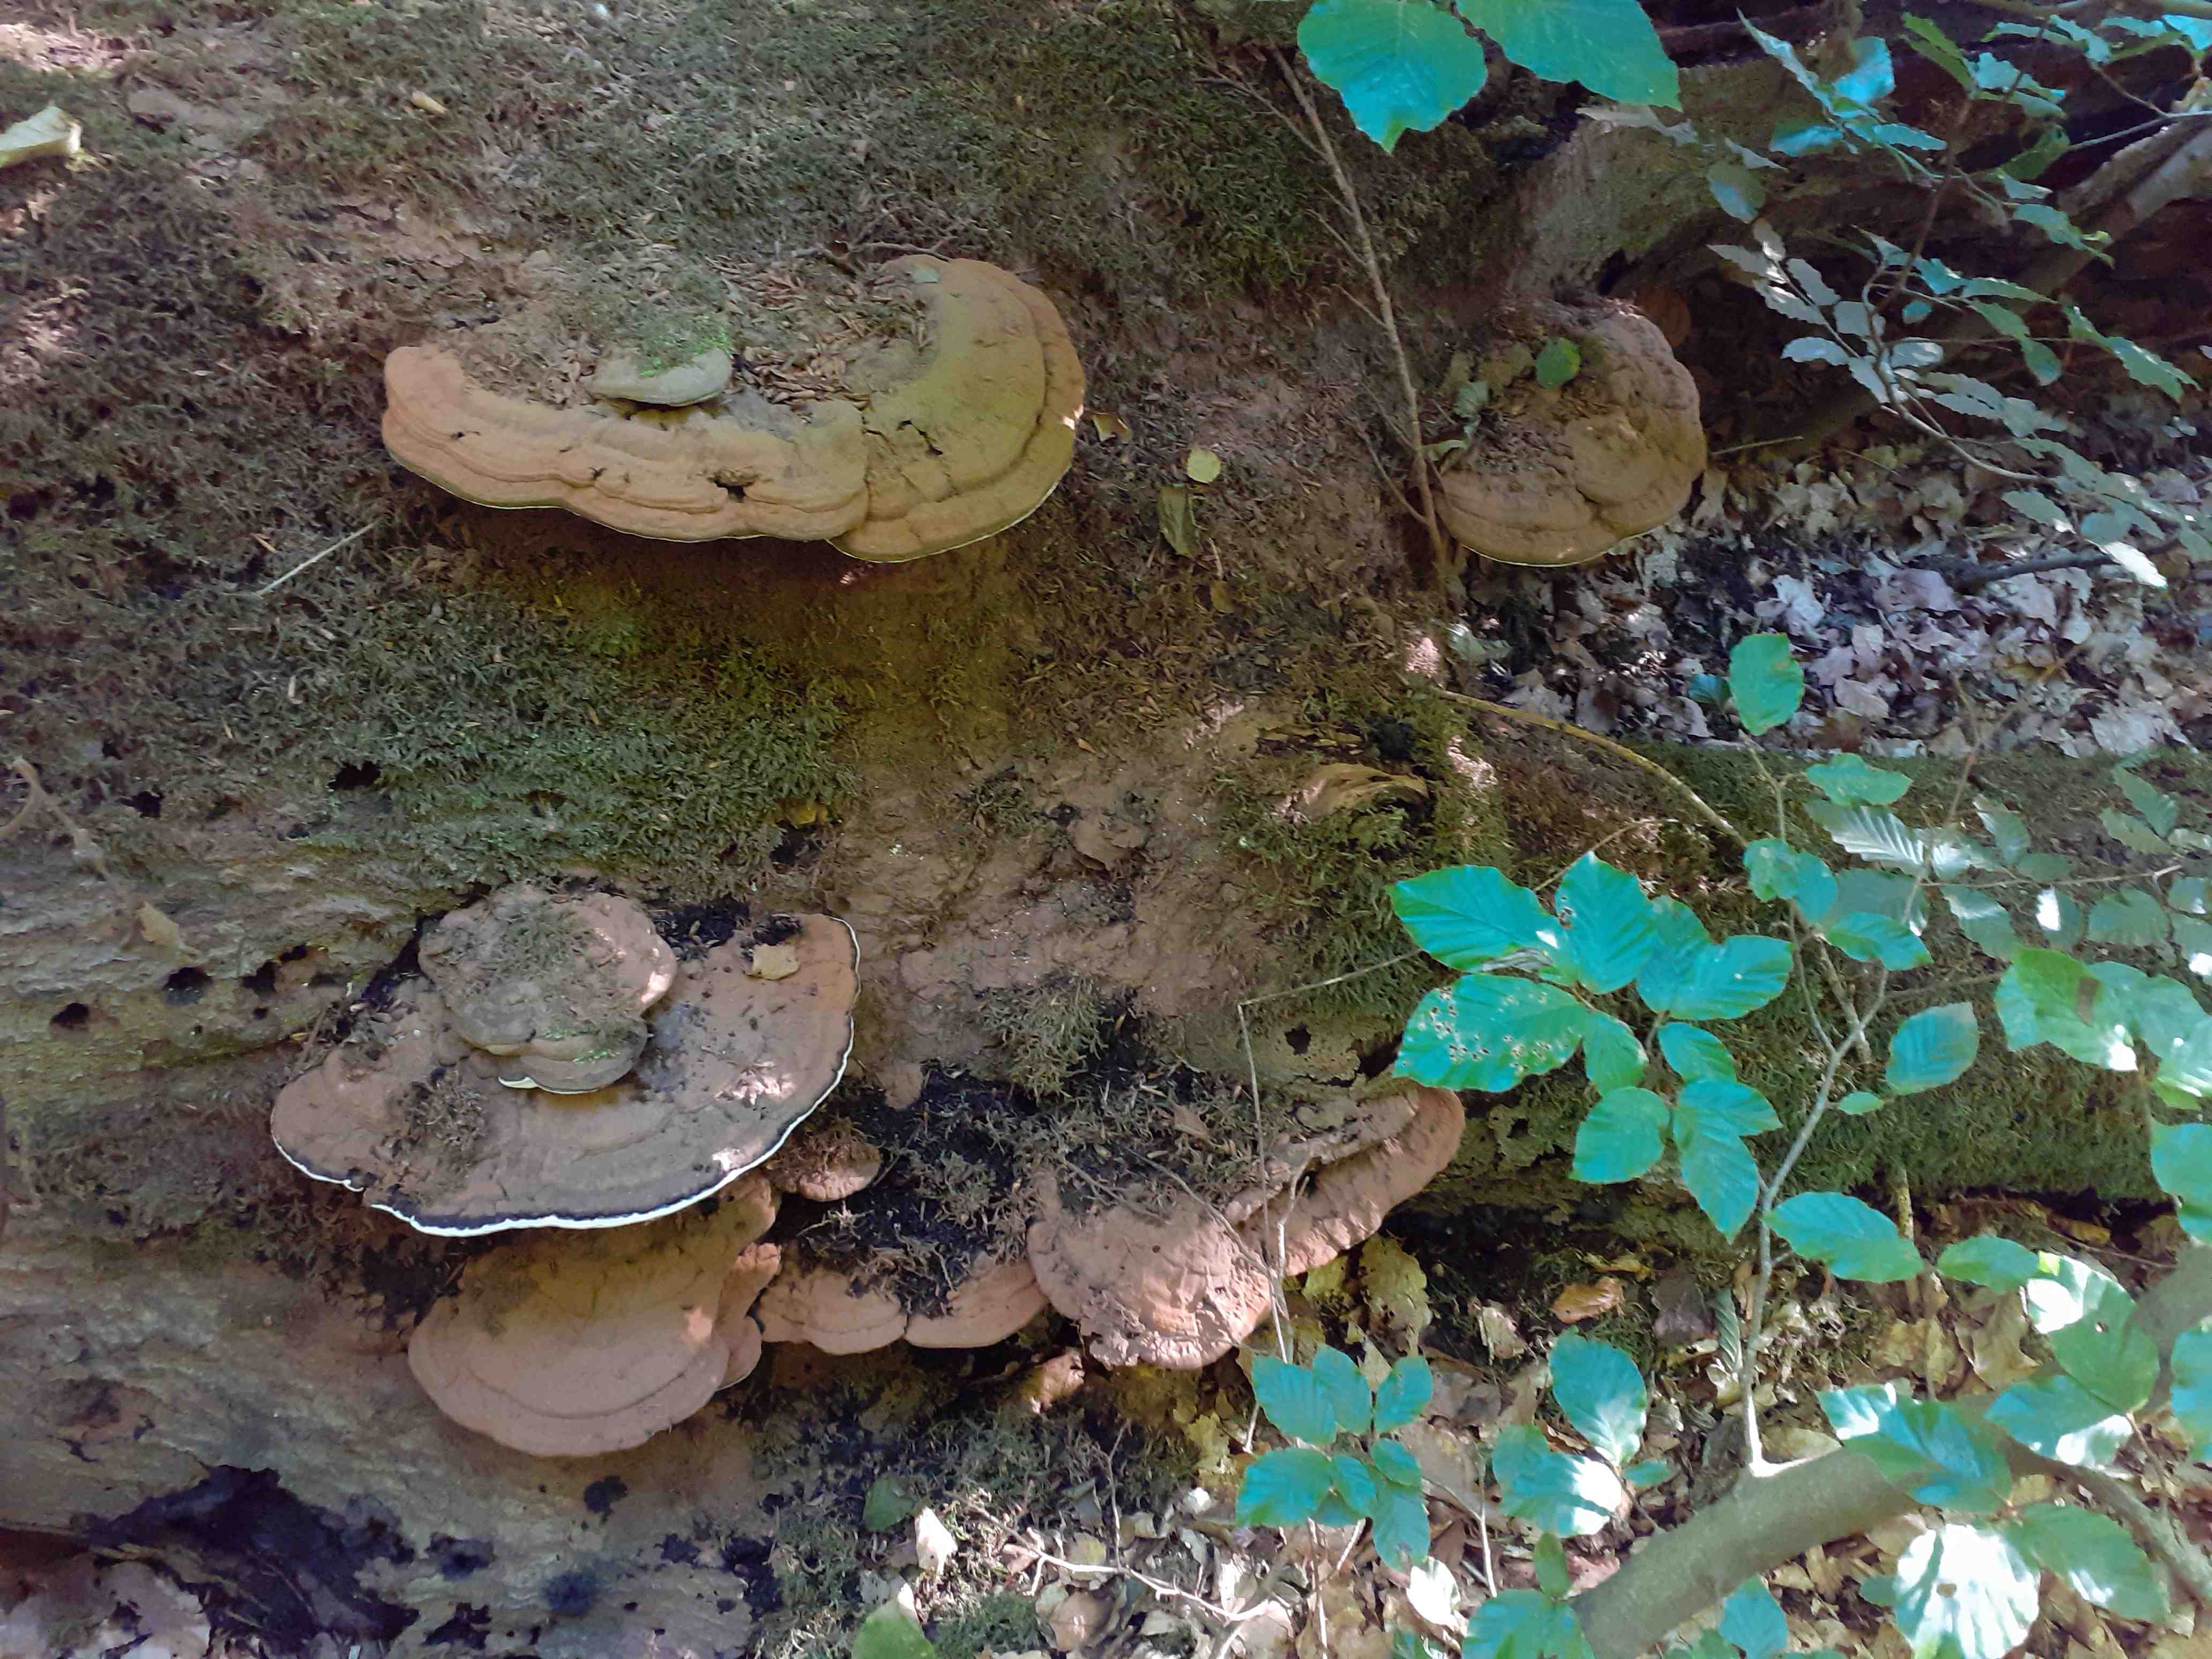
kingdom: Fungi
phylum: Basidiomycota
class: Agaricomycetes
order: Polyporales
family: Polyporaceae
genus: Ganoderma
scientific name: Ganoderma applanatum
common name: flad lakporesvamp
